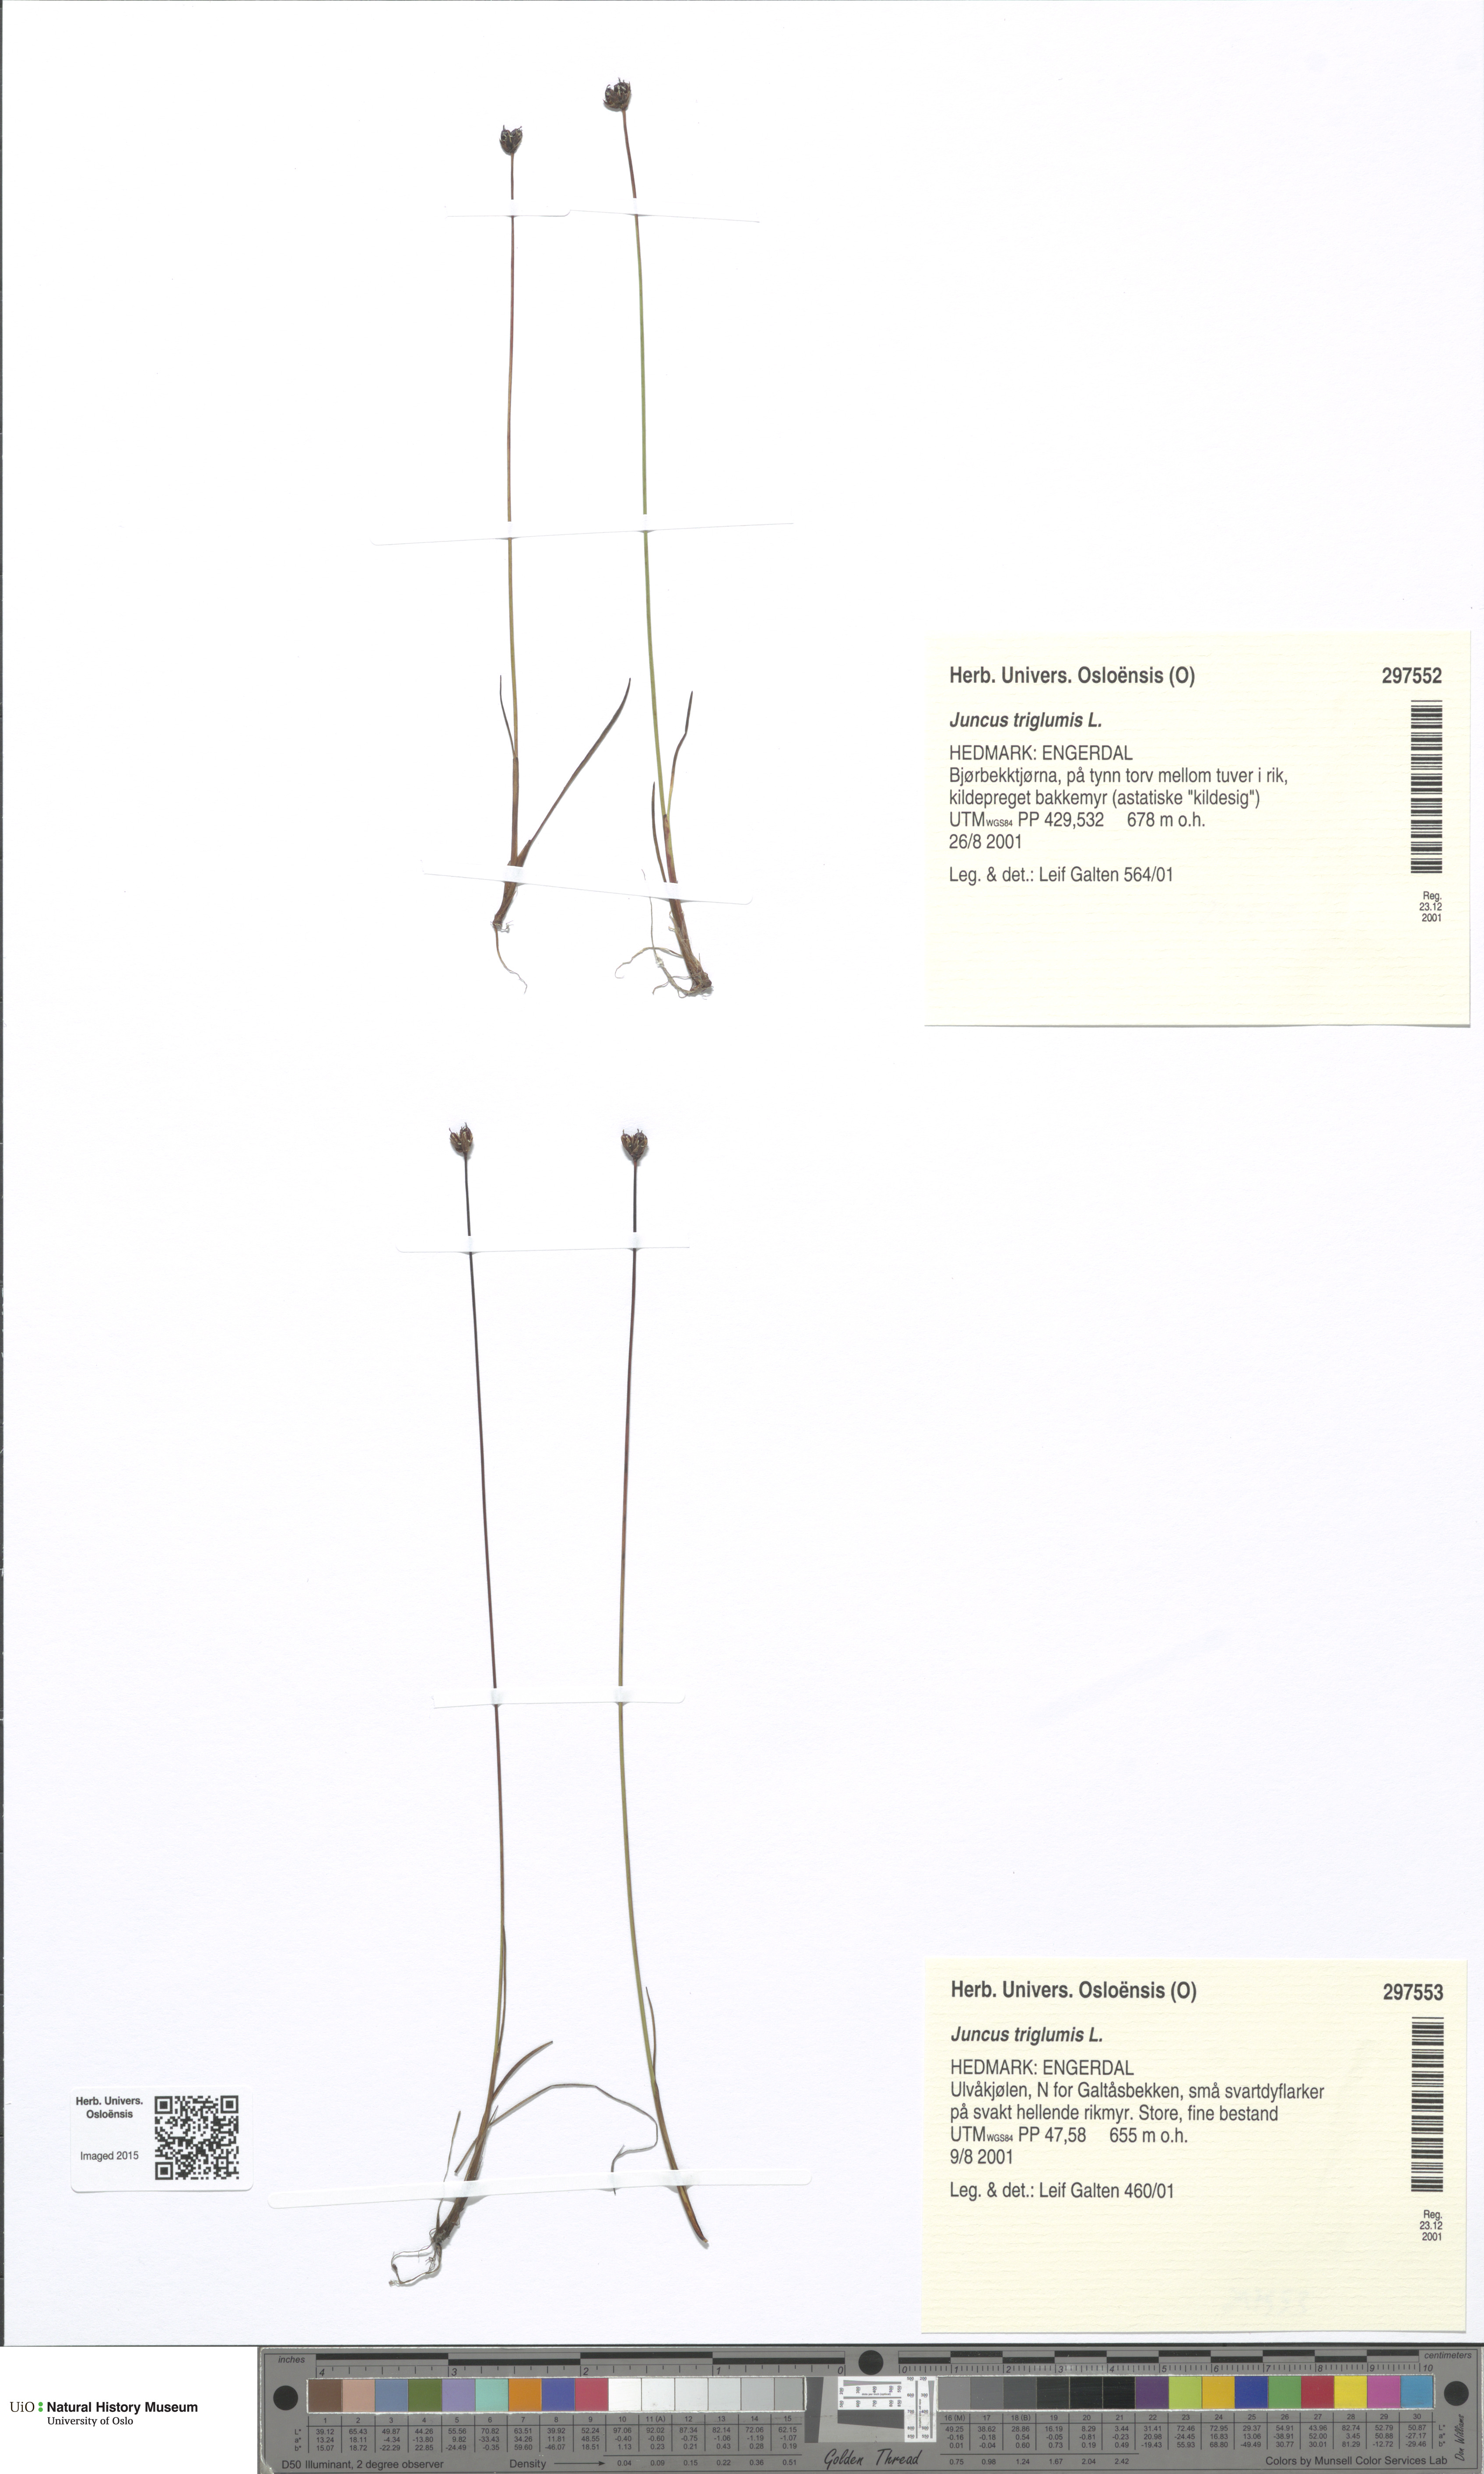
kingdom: Plantae
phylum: Tracheophyta
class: Liliopsida
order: Poales
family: Juncaceae
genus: Juncus
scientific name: Juncus triglumis
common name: Three-flowered rush
